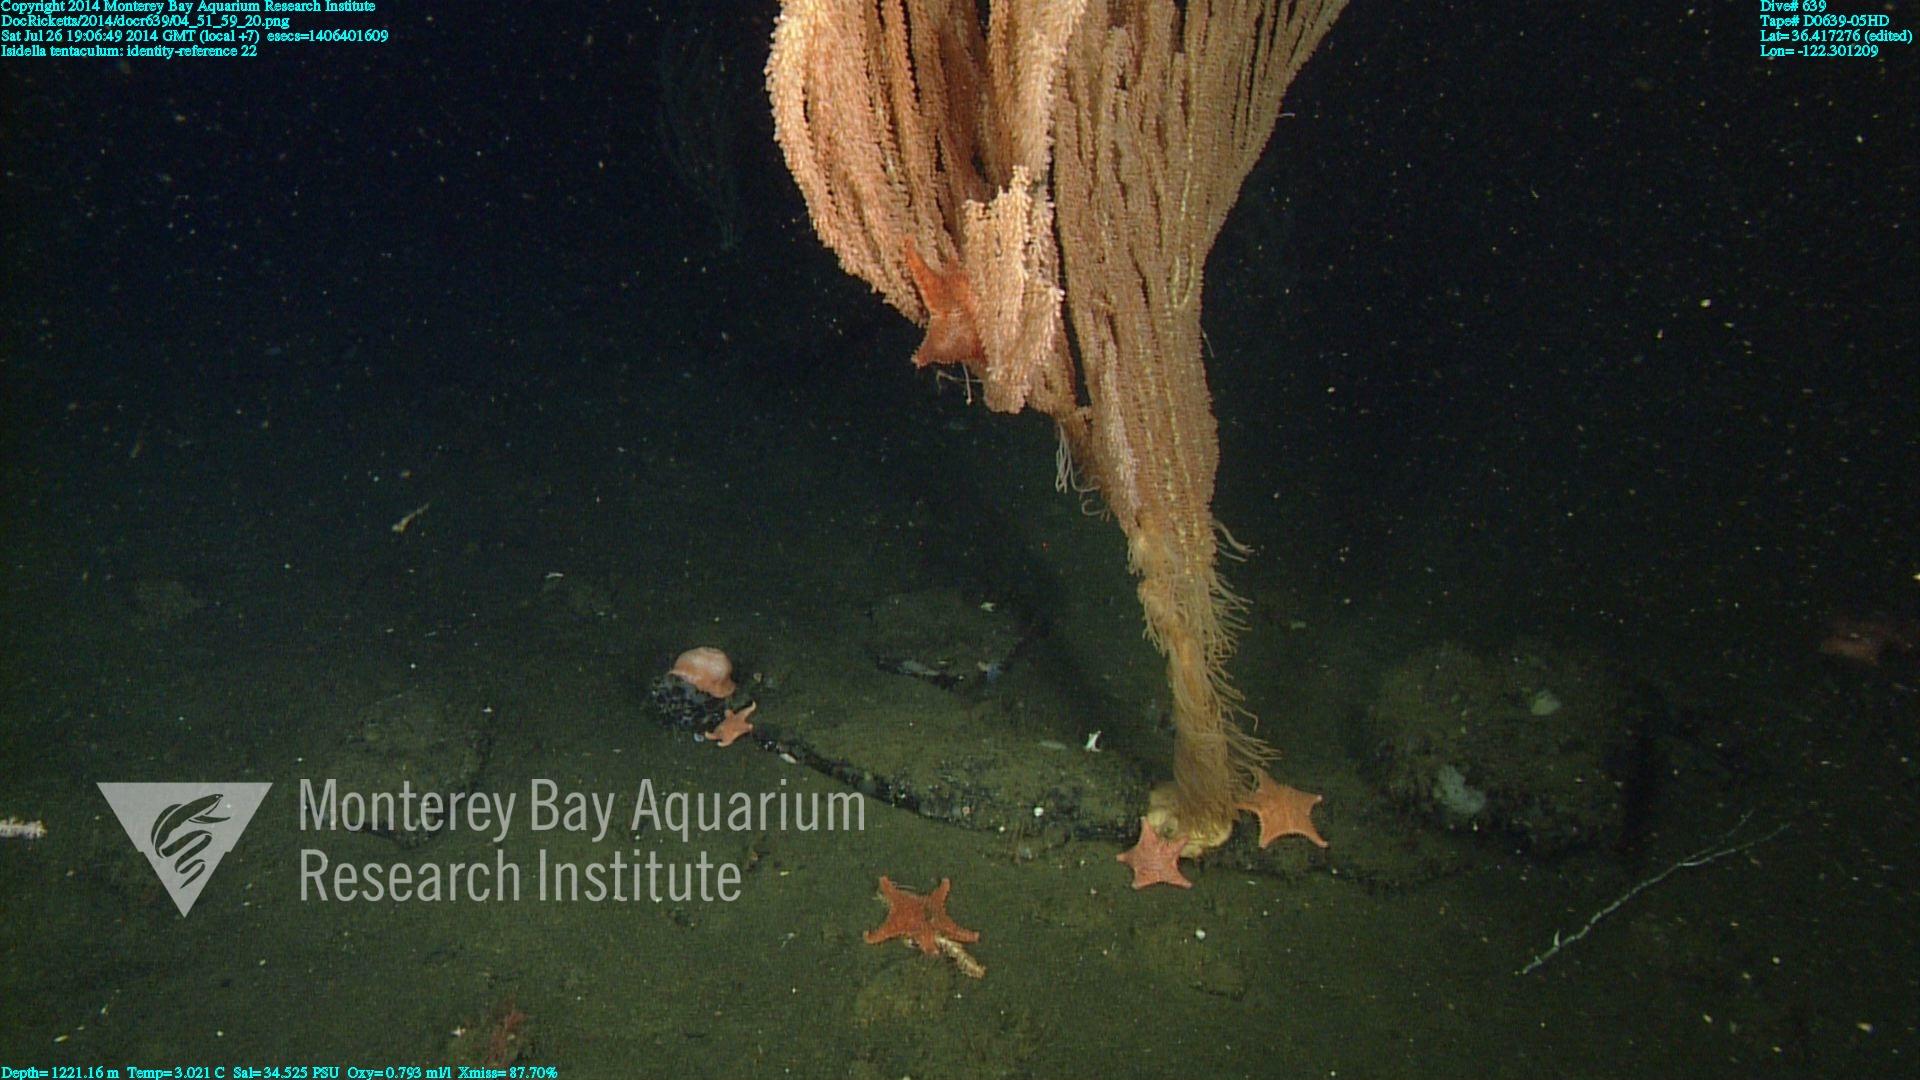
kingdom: Animalia
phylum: Cnidaria
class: Anthozoa
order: Scleralcyonacea
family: Keratoisididae
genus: Isidella
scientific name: Isidella tentaculum
